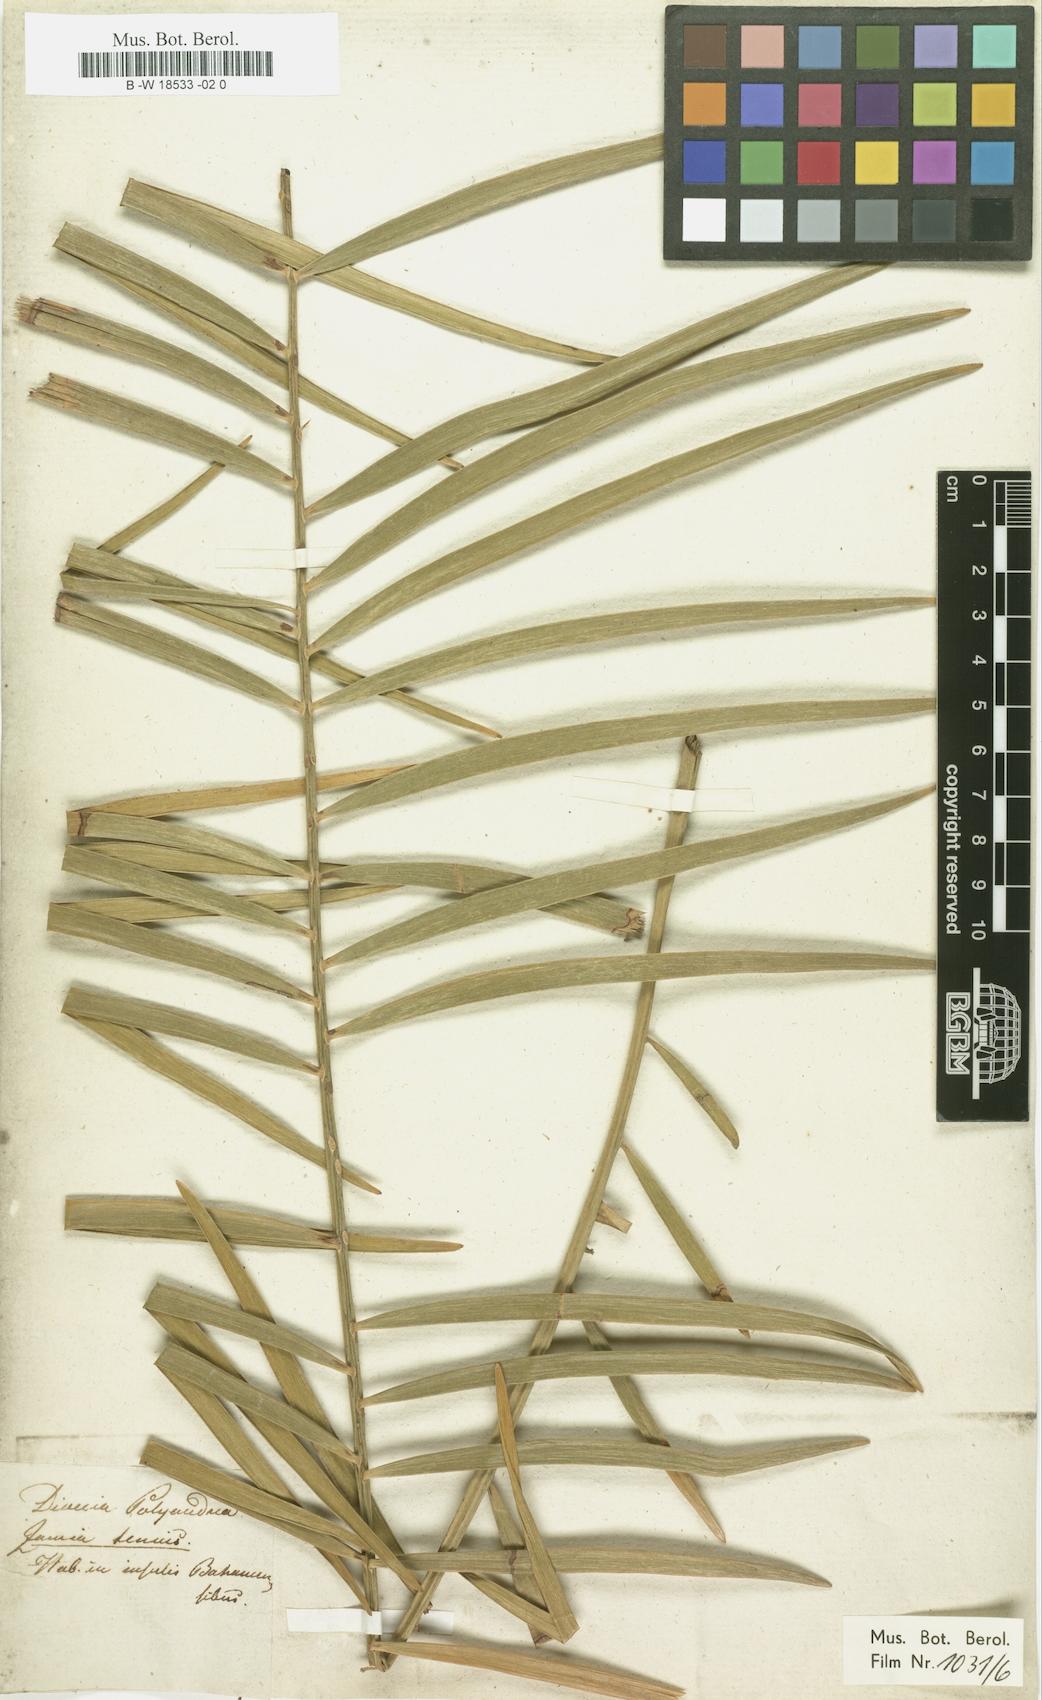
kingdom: Plantae
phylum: Tracheophyta
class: Cycadopsida
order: Cycadales
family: Zamiaceae
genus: Zamia
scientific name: Zamia integrifolia
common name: Florida arrowroot
